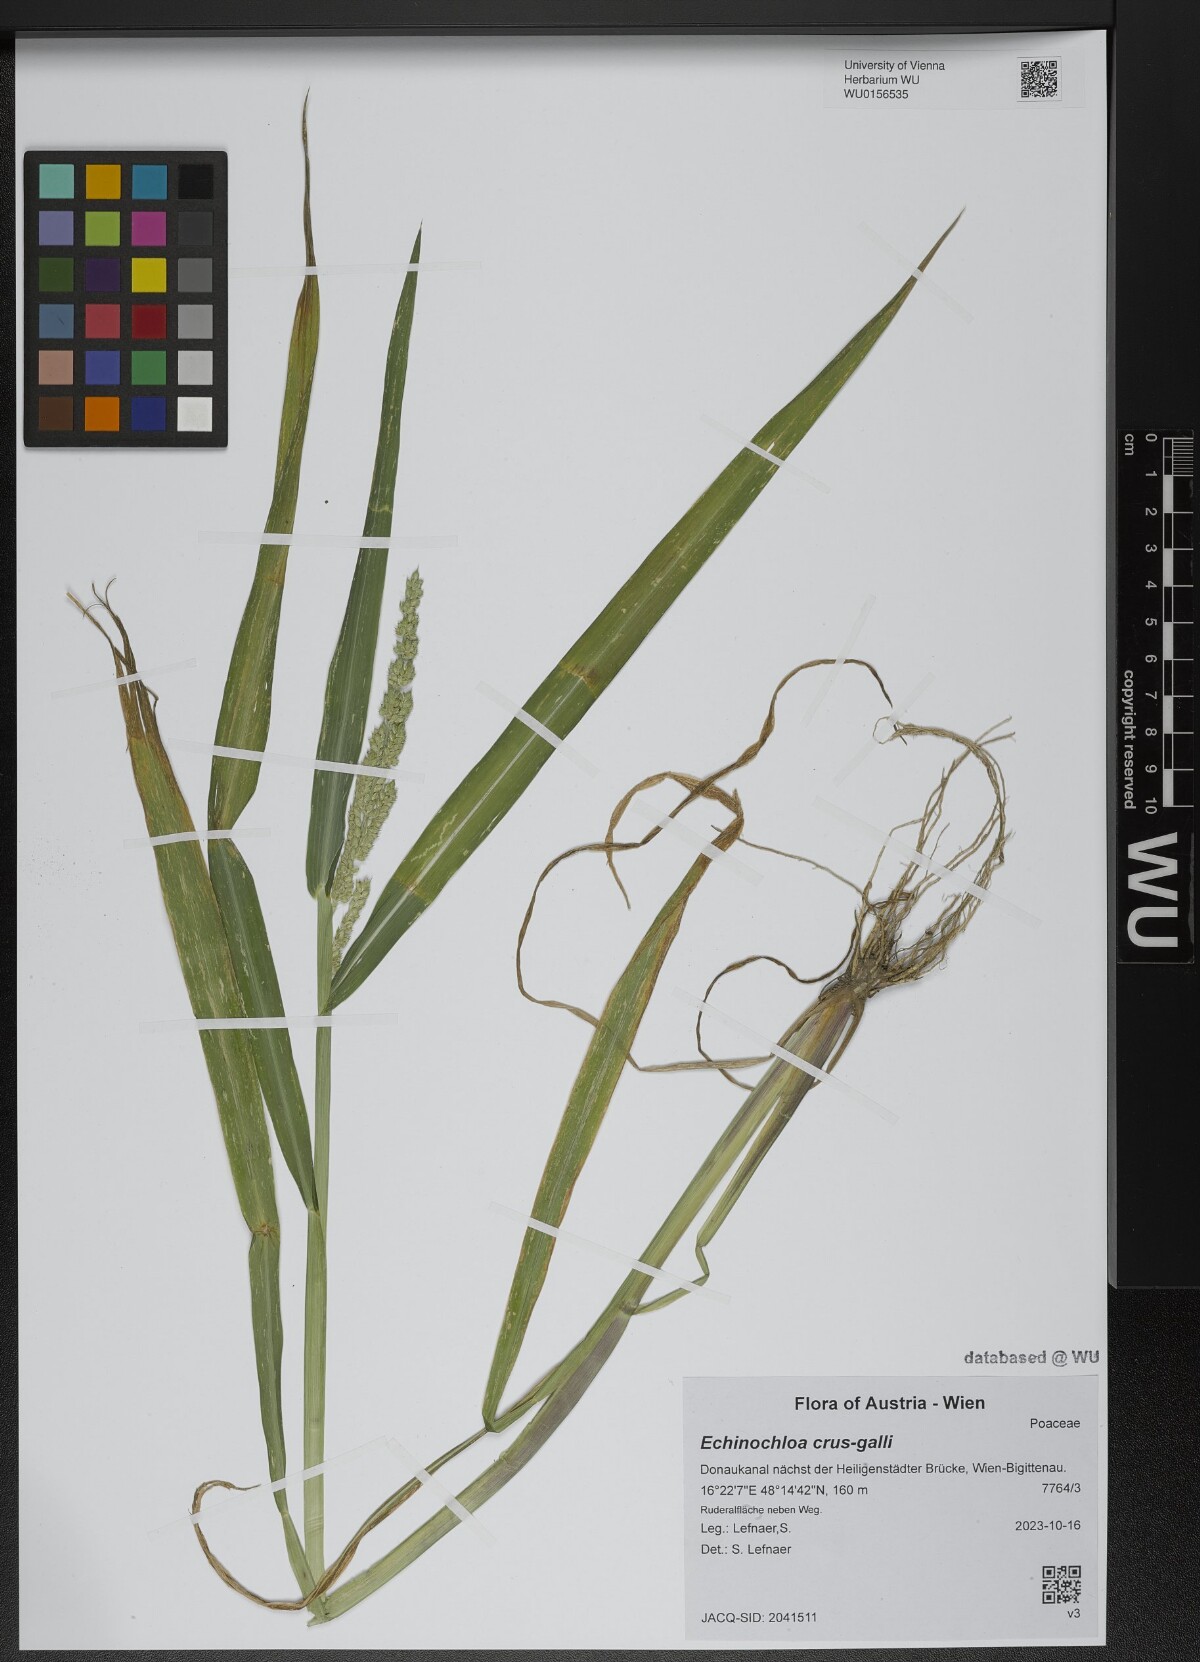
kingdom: Plantae
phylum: Tracheophyta
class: Liliopsida
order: Poales
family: Poaceae
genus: Echinochloa
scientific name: Echinochloa crus-galli
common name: Cockspur
